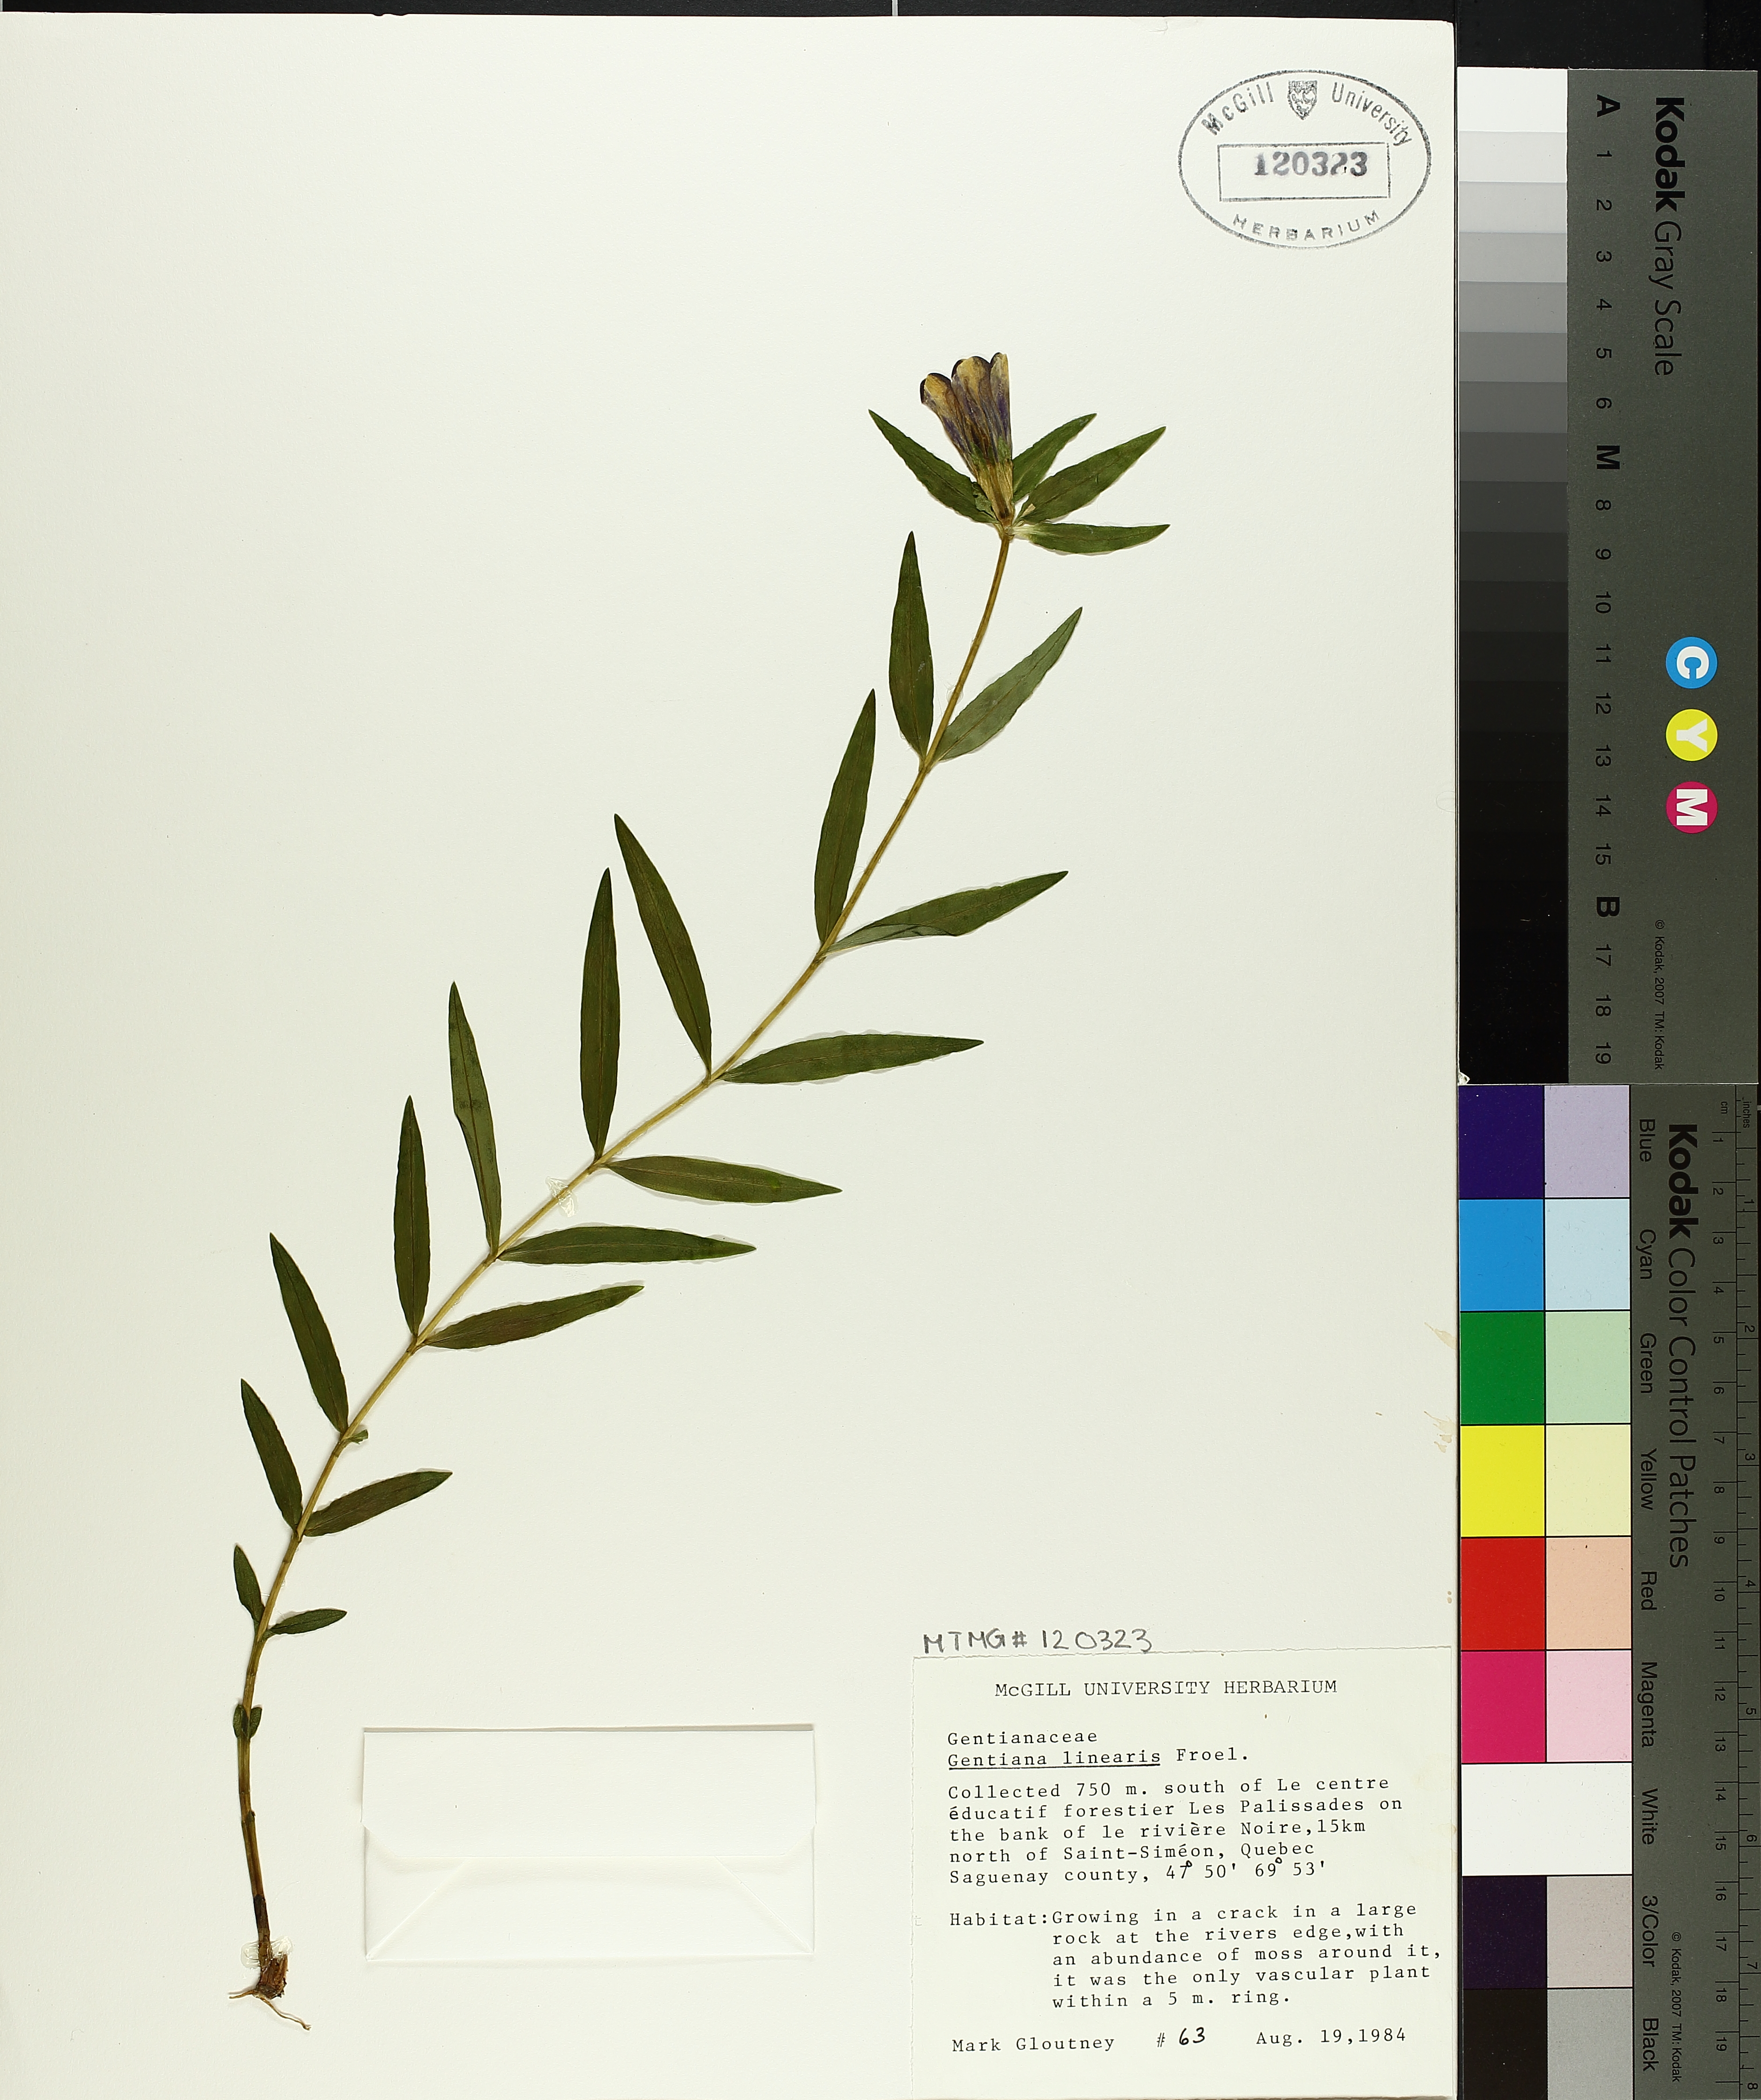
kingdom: Plantae
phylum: Tracheophyta
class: Magnoliopsida
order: Gentianales
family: Gentianaceae
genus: Gentiana
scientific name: Gentiana linearis
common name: Bastard gentian
